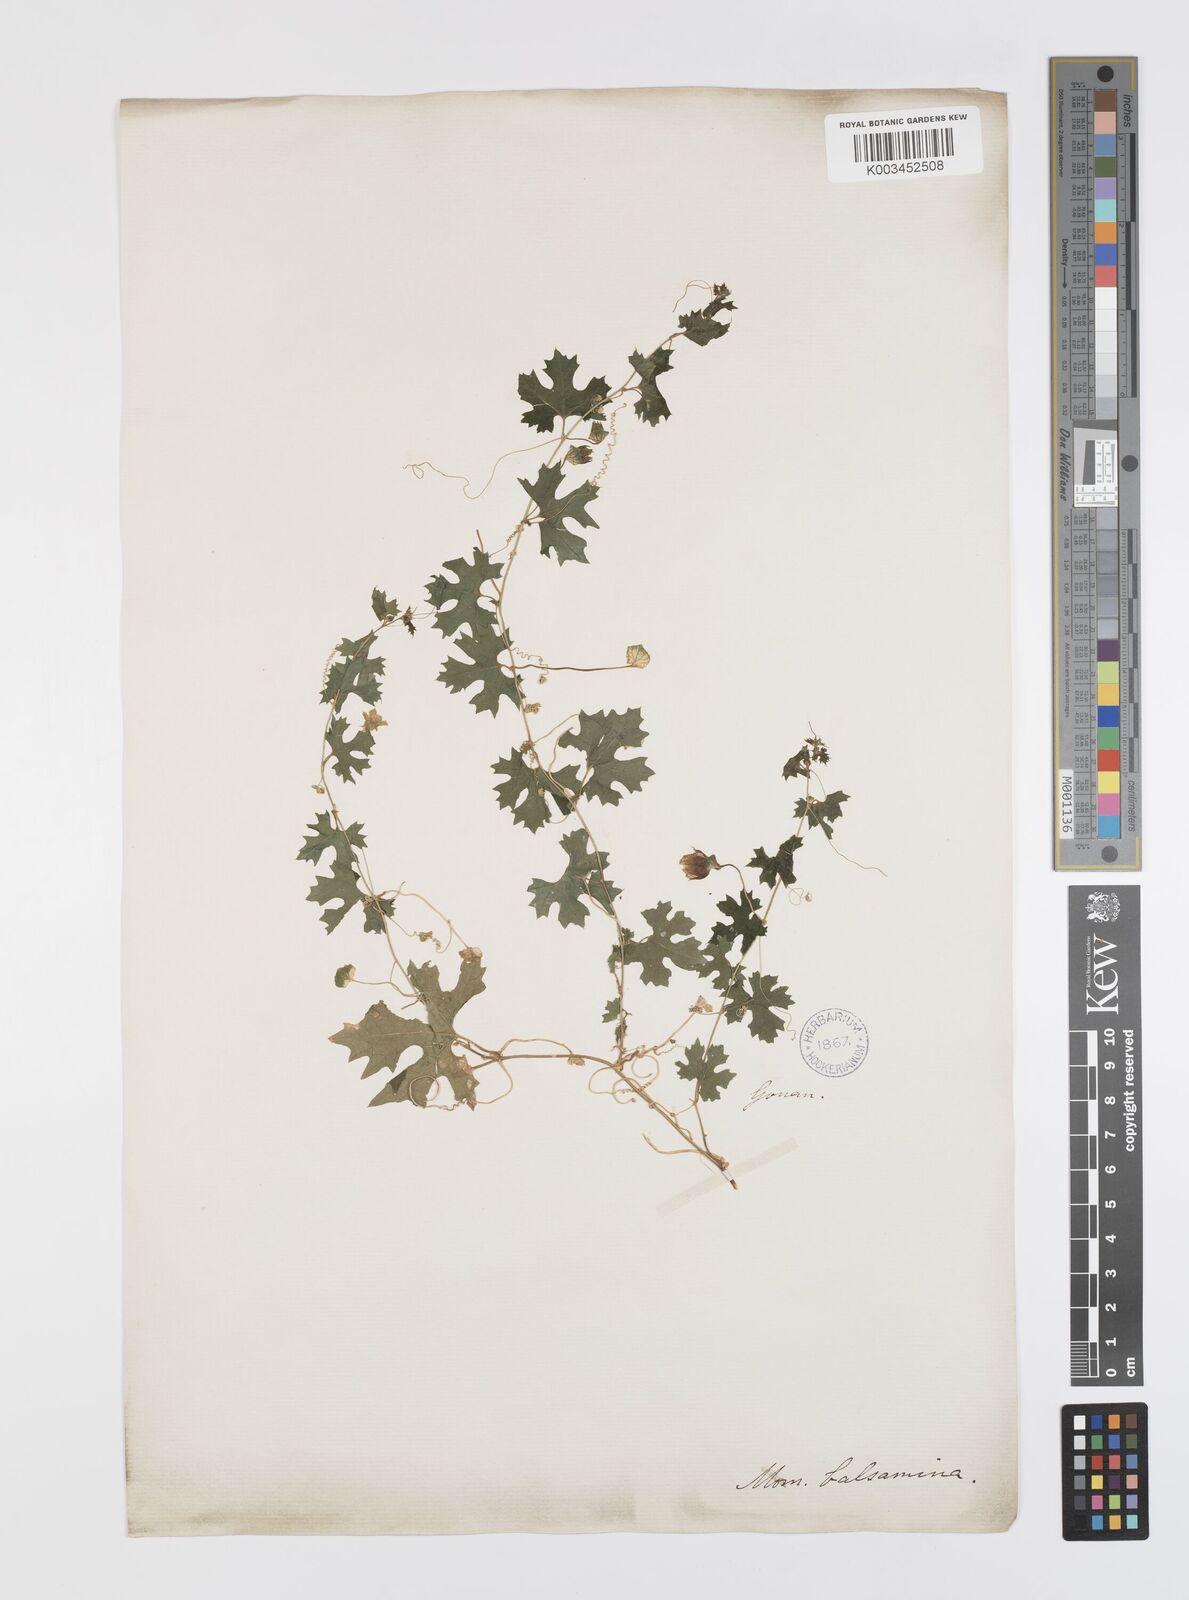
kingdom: Plantae
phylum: Tracheophyta
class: Magnoliopsida
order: Cucurbitales
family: Cucurbitaceae
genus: Momordica
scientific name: Momordica balsamina
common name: Southern balsampear
